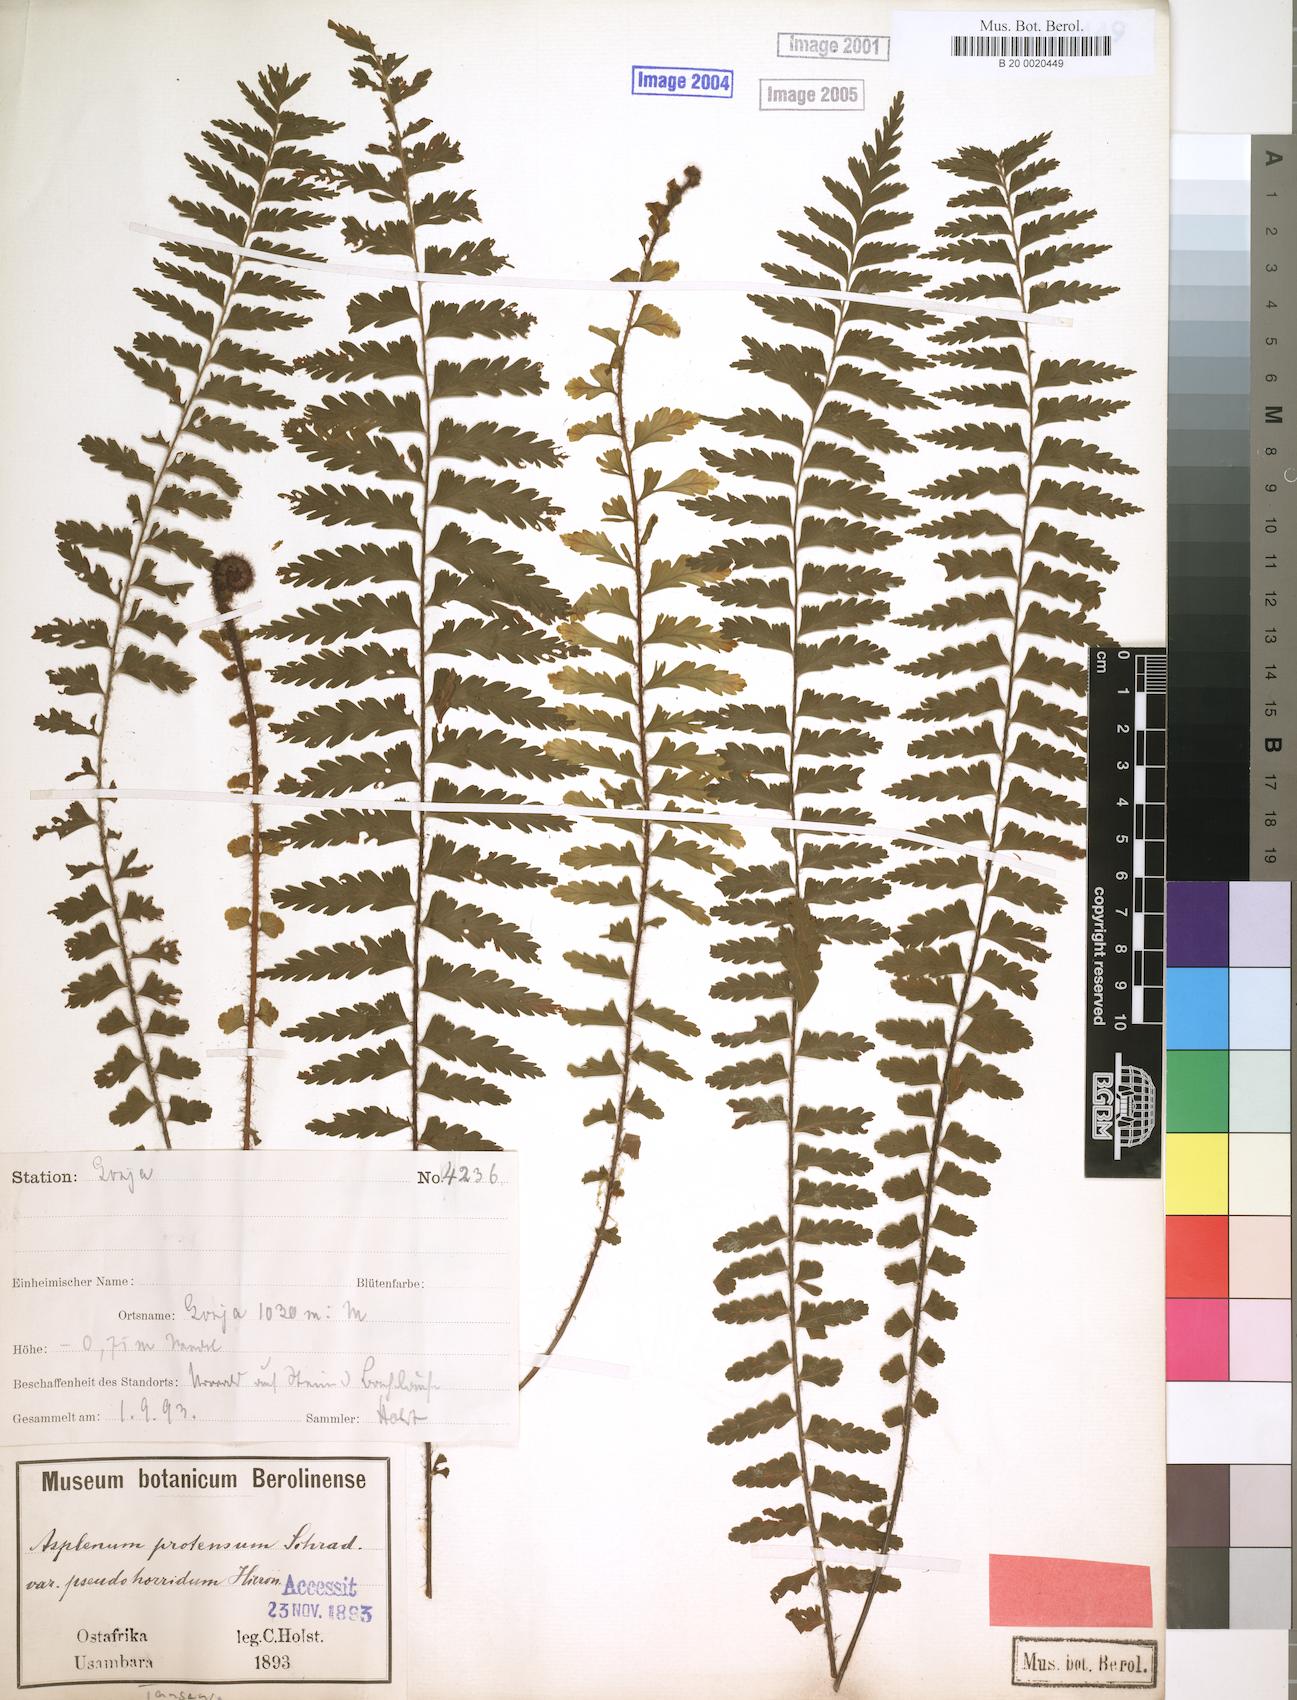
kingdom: Plantae
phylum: Tracheophyta
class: Polypodiopsida
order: Polypodiales
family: Aspleniaceae
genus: Asplenium
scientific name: Asplenium pellucidum
